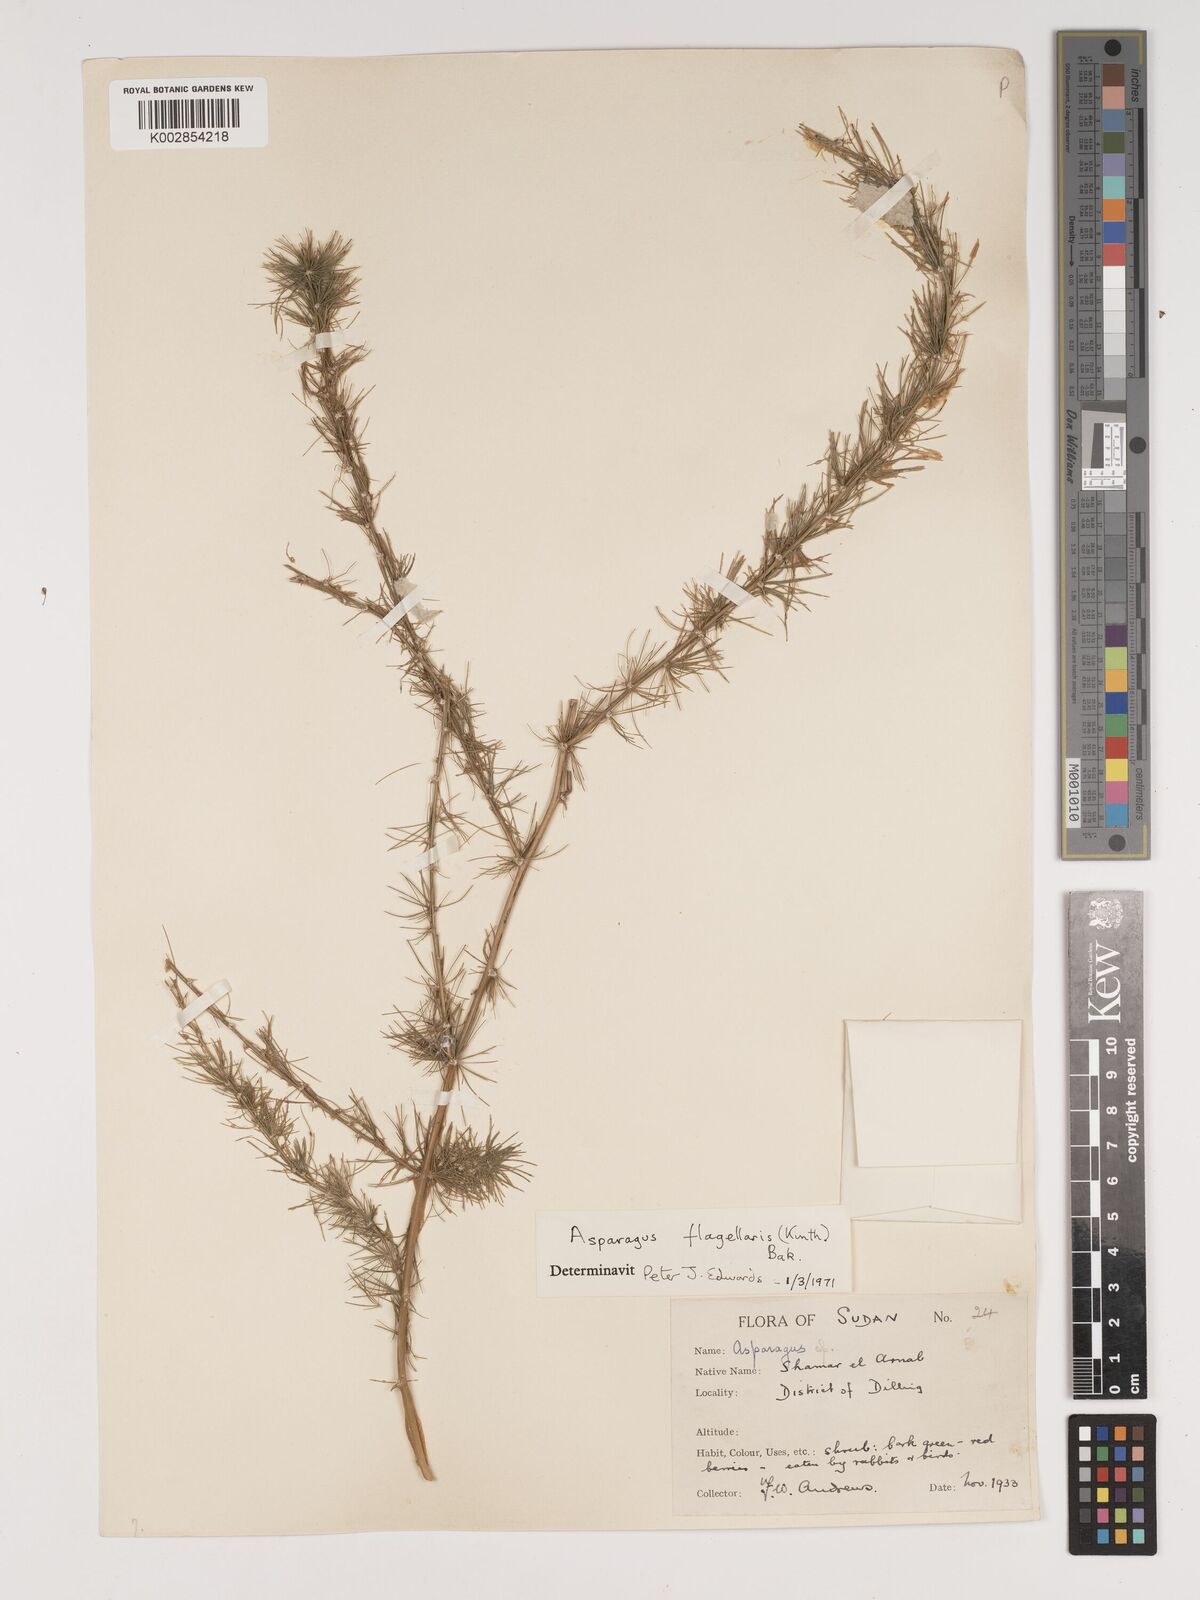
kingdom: Plantae
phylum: Tracheophyta
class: Liliopsida
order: Asparagales
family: Asparagaceae
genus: Asparagus
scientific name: Asparagus flagellaris
